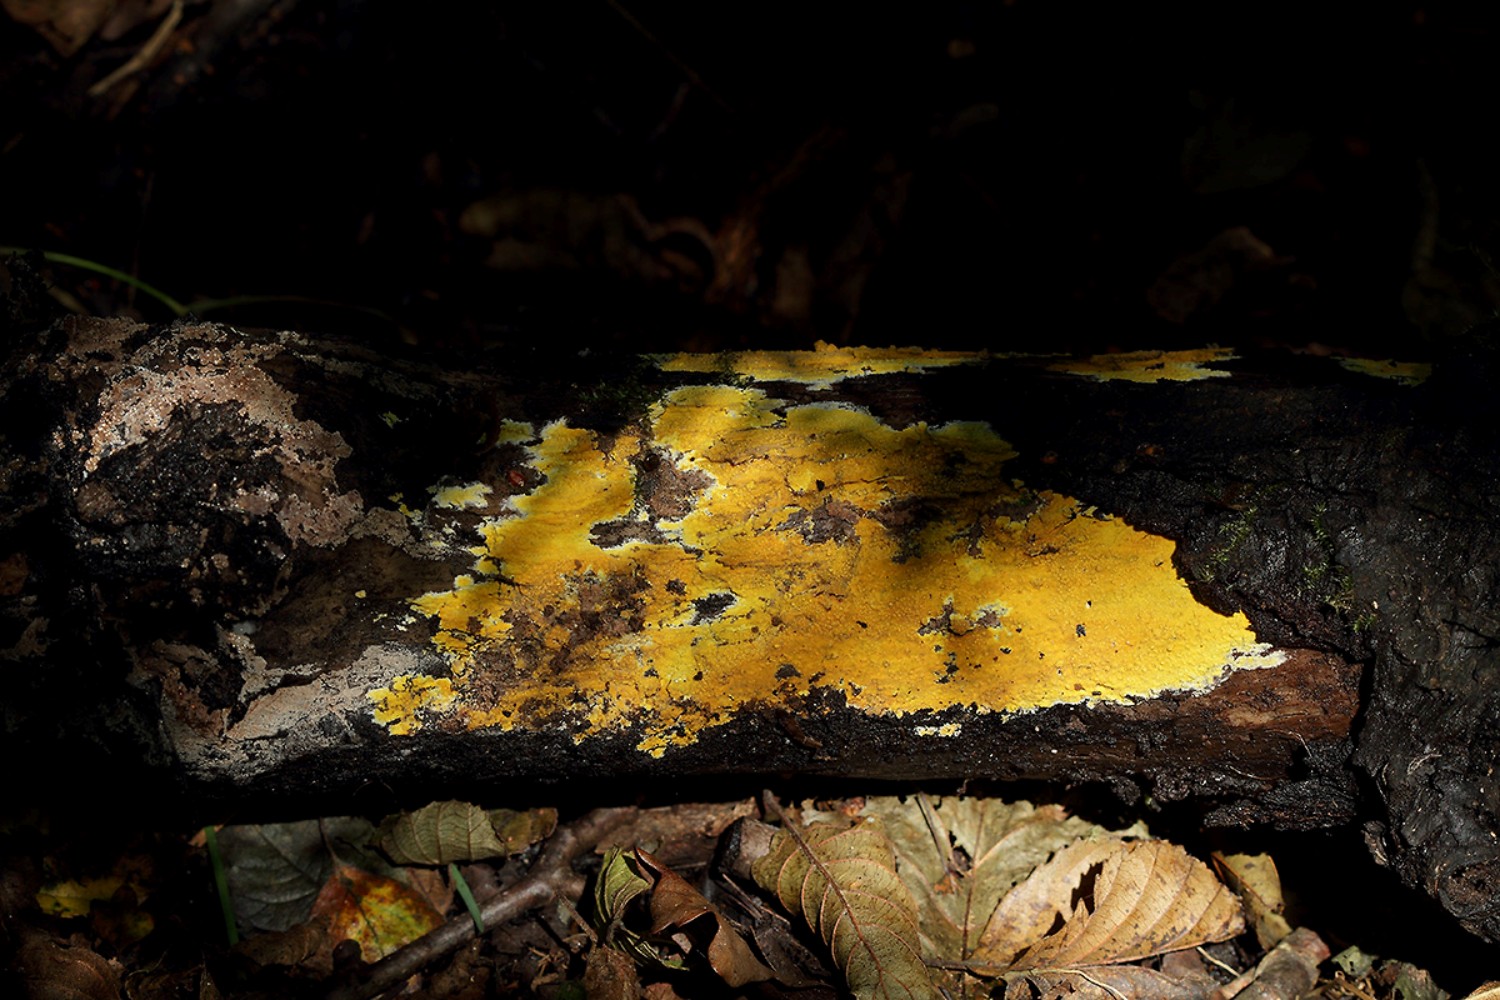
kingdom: Fungi
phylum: Basidiomycota
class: Agaricomycetes
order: Polyporales
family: Meruliaceae
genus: Phlebiodontia
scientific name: Phlebiodontia subochracea
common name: svovl-åresvamp
